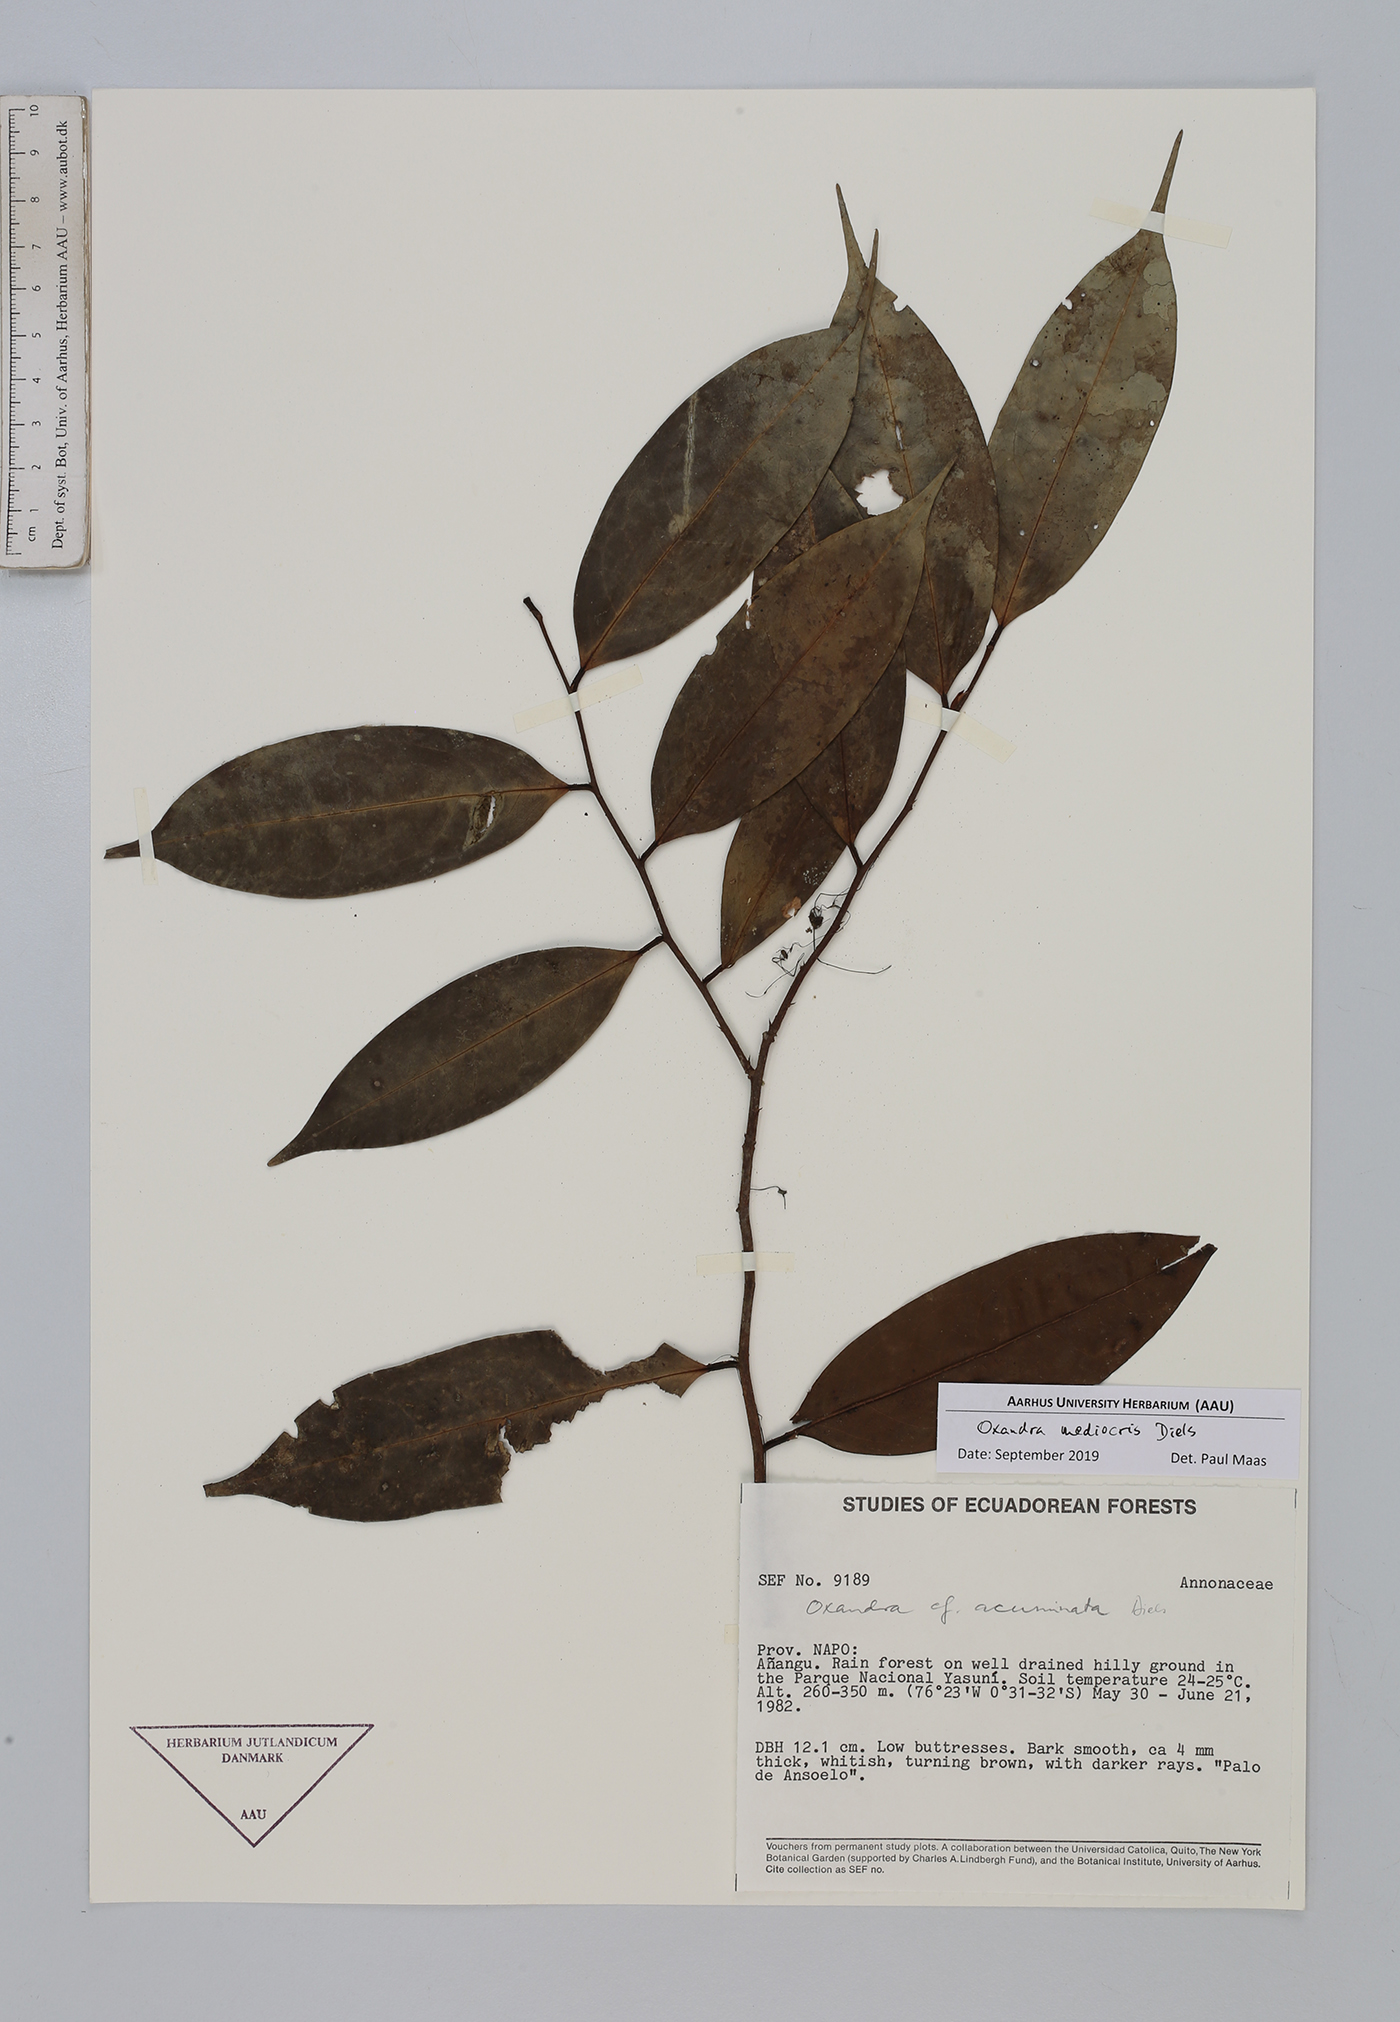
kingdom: Plantae
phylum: Tracheophyta
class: Magnoliopsida
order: Magnoliales
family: Annonaceae
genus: Oxandra
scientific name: Oxandra mediocris
